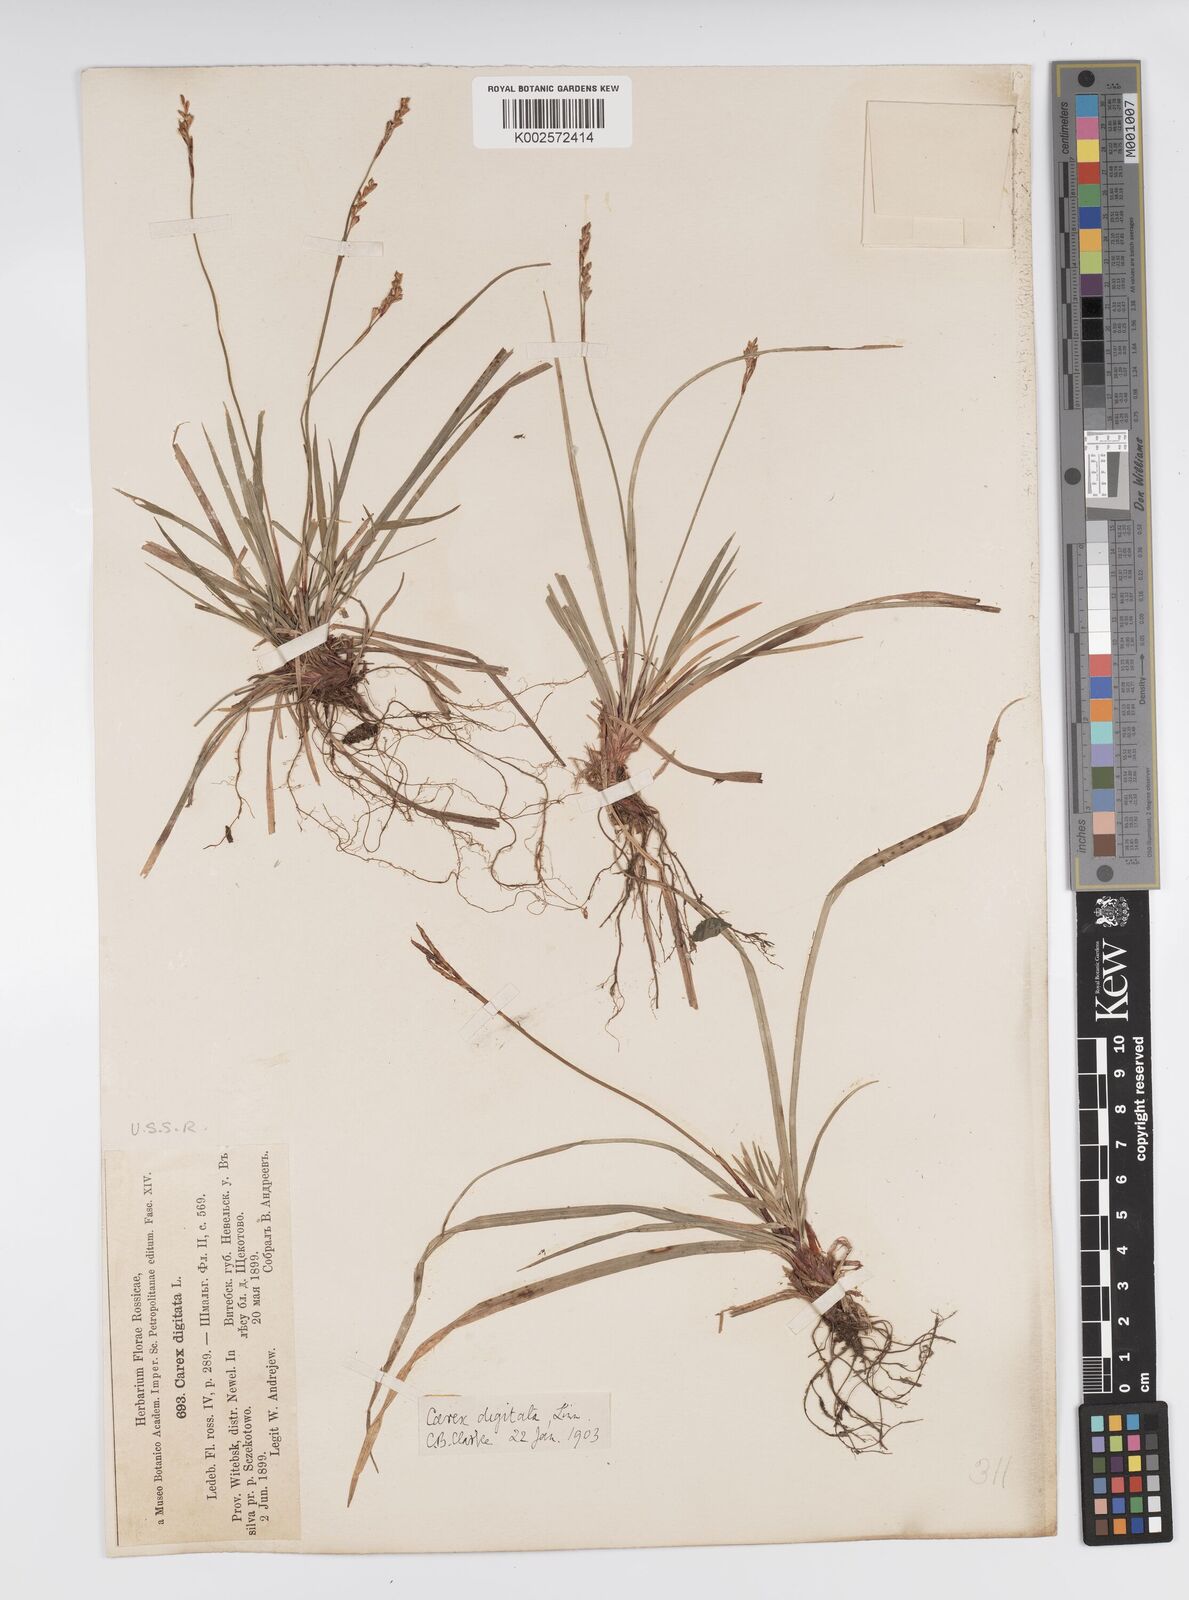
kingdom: Plantae
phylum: Tracheophyta
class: Liliopsida
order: Poales
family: Cyperaceae
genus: Carex
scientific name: Carex digitata
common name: Fingered sedge
